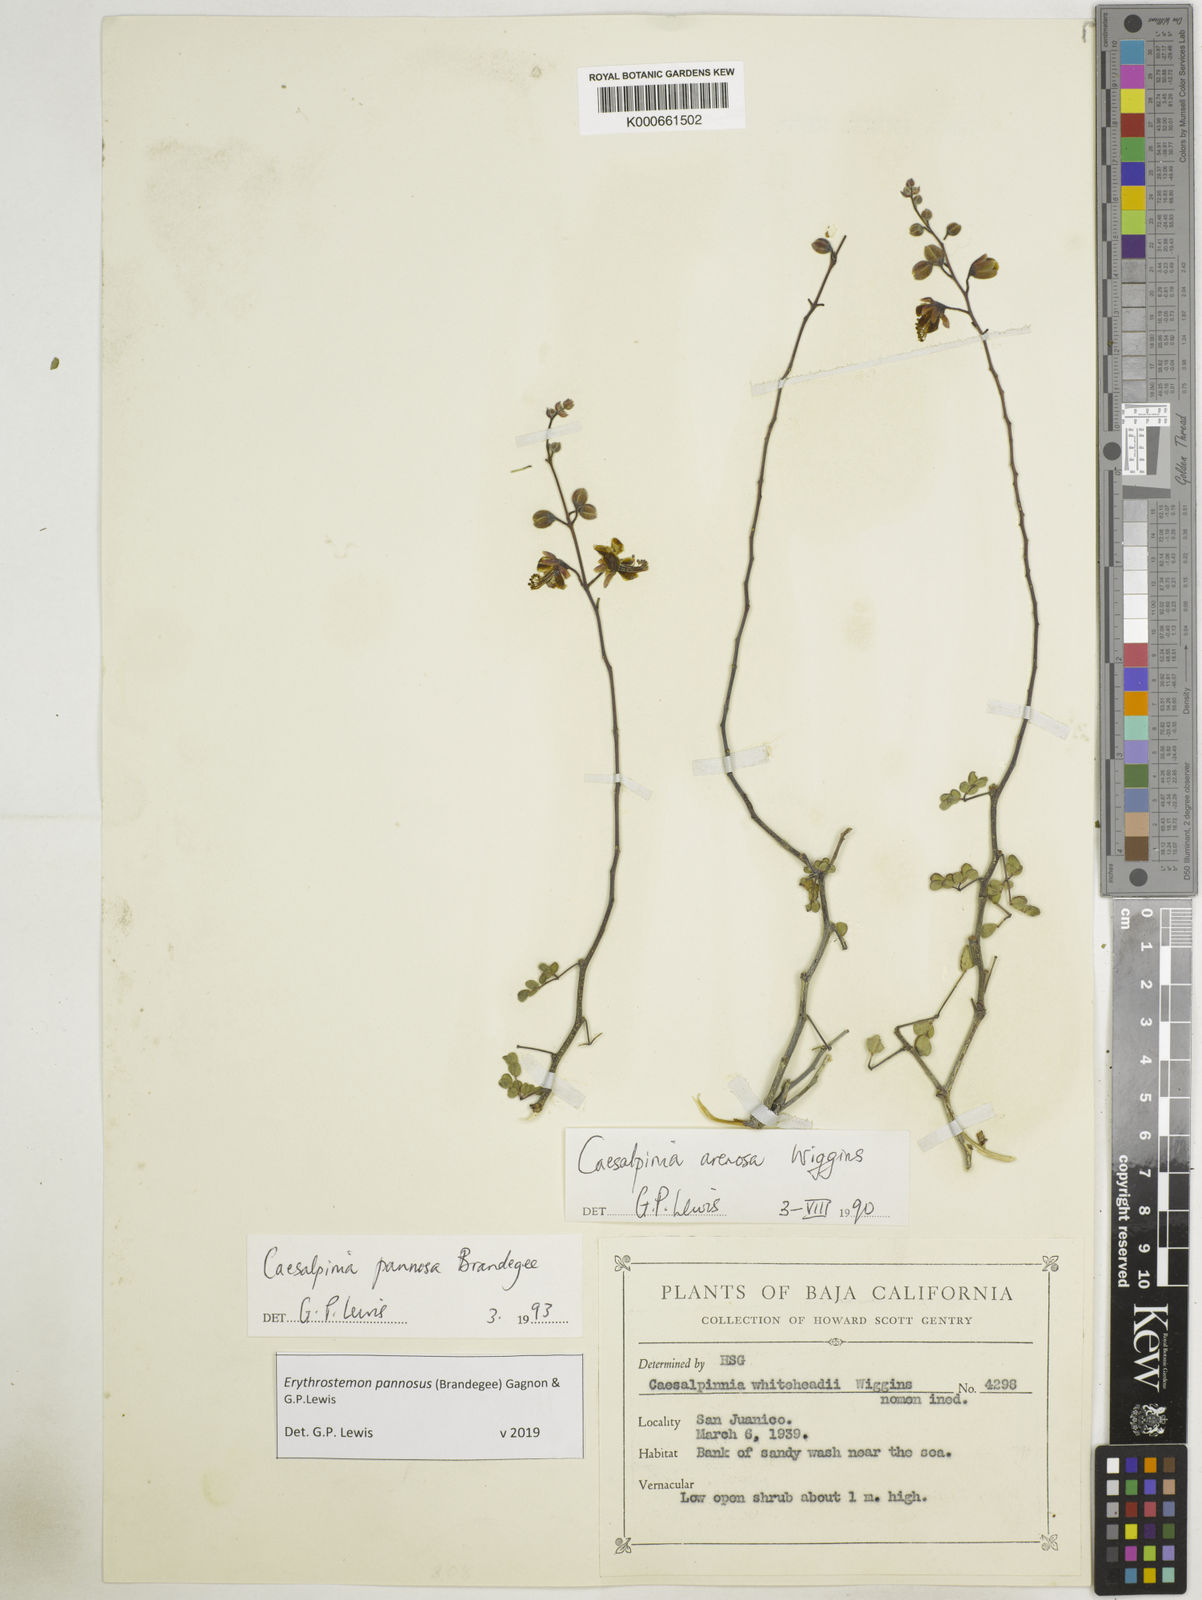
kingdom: Plantae
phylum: Tracheophyta
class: Magnoliopsida
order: Fabales
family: Fabaceae
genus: Erythrostemon
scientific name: Erythrostemon pannosus
